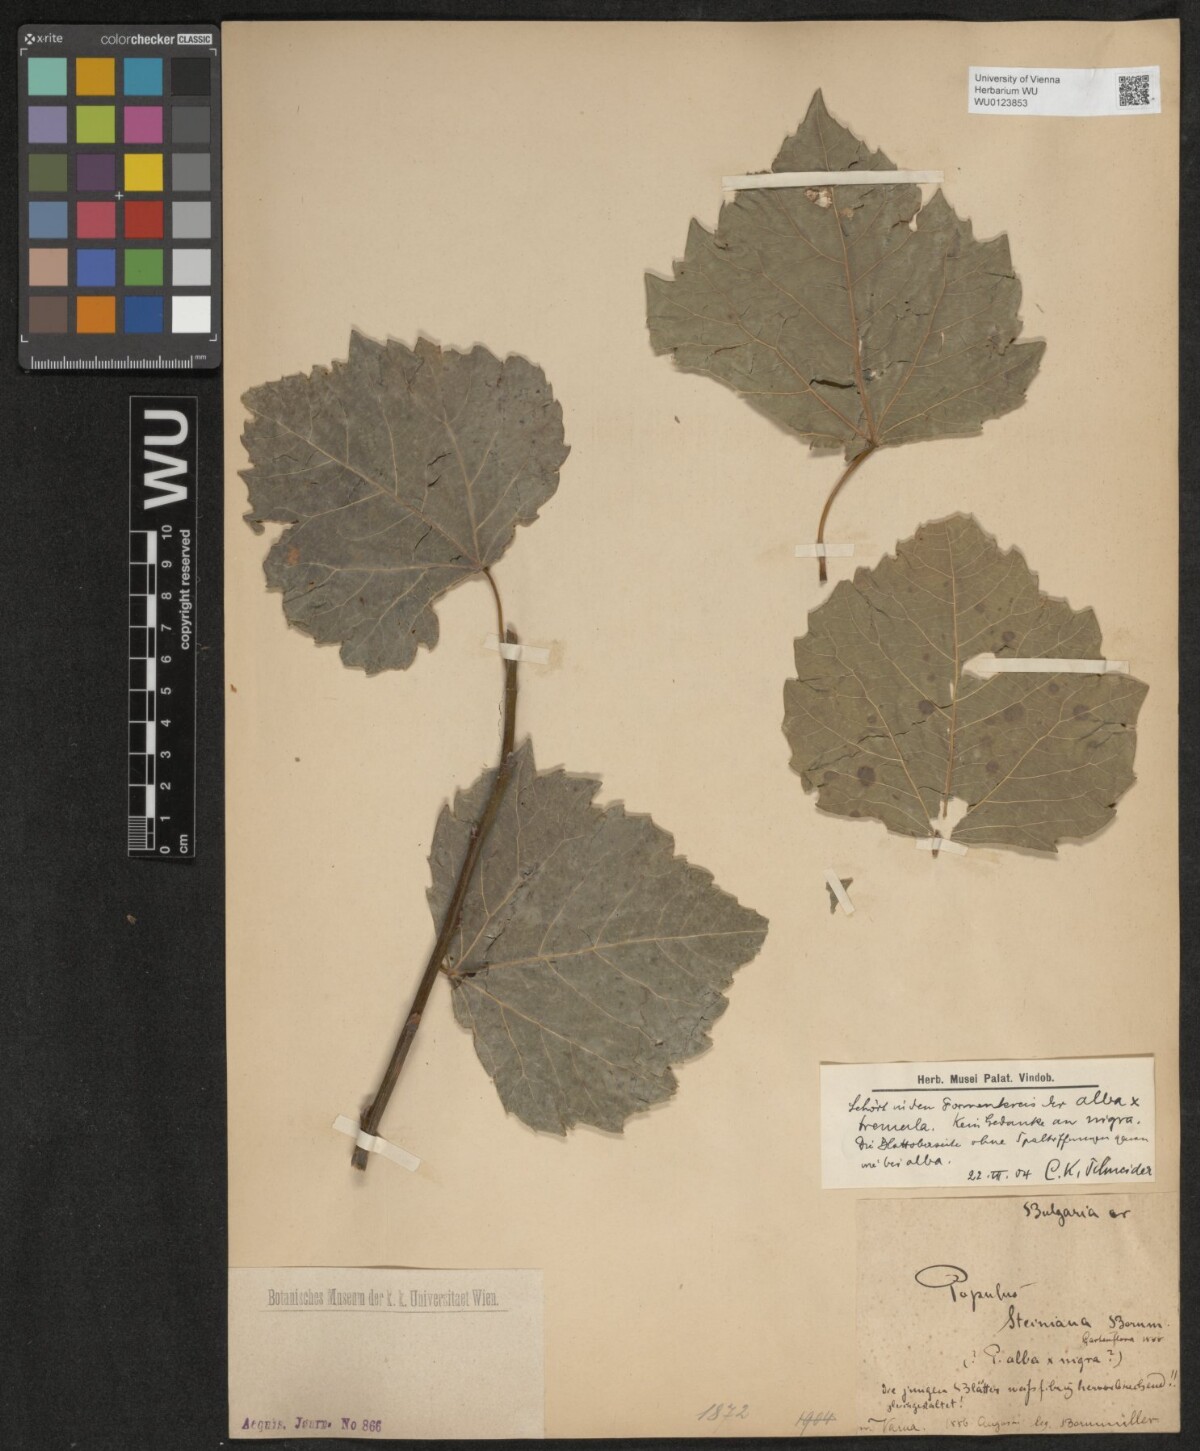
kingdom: Plantae
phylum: Tracheophyta
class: Magnoliopsida
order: Malpighiales
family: Salicaceae
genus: Populus
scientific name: Populus canescens
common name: Gray poplar
